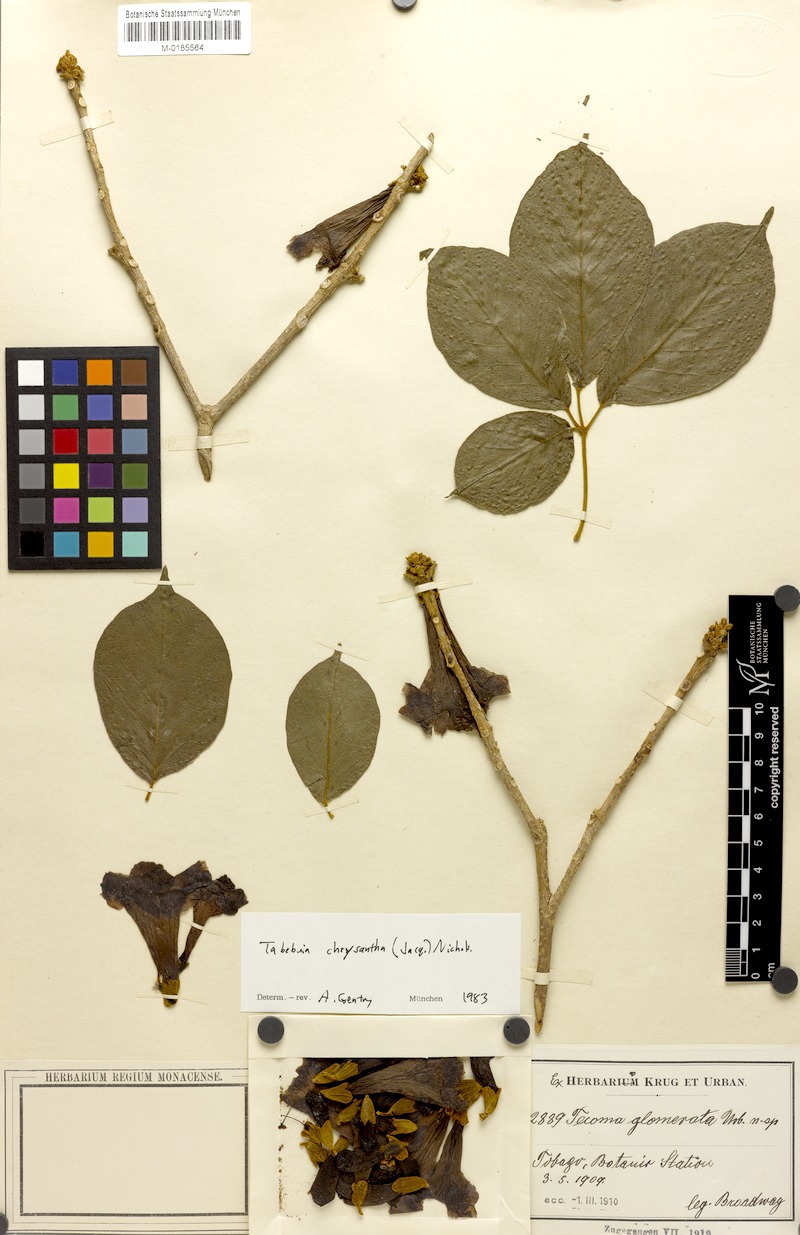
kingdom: Plantae
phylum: Tracheophyta
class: Magnoliopsida
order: Lamiales
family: Bignoniaceae
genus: Handroanthus
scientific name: Handroanthus chrysanthus
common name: Trumpet trees
